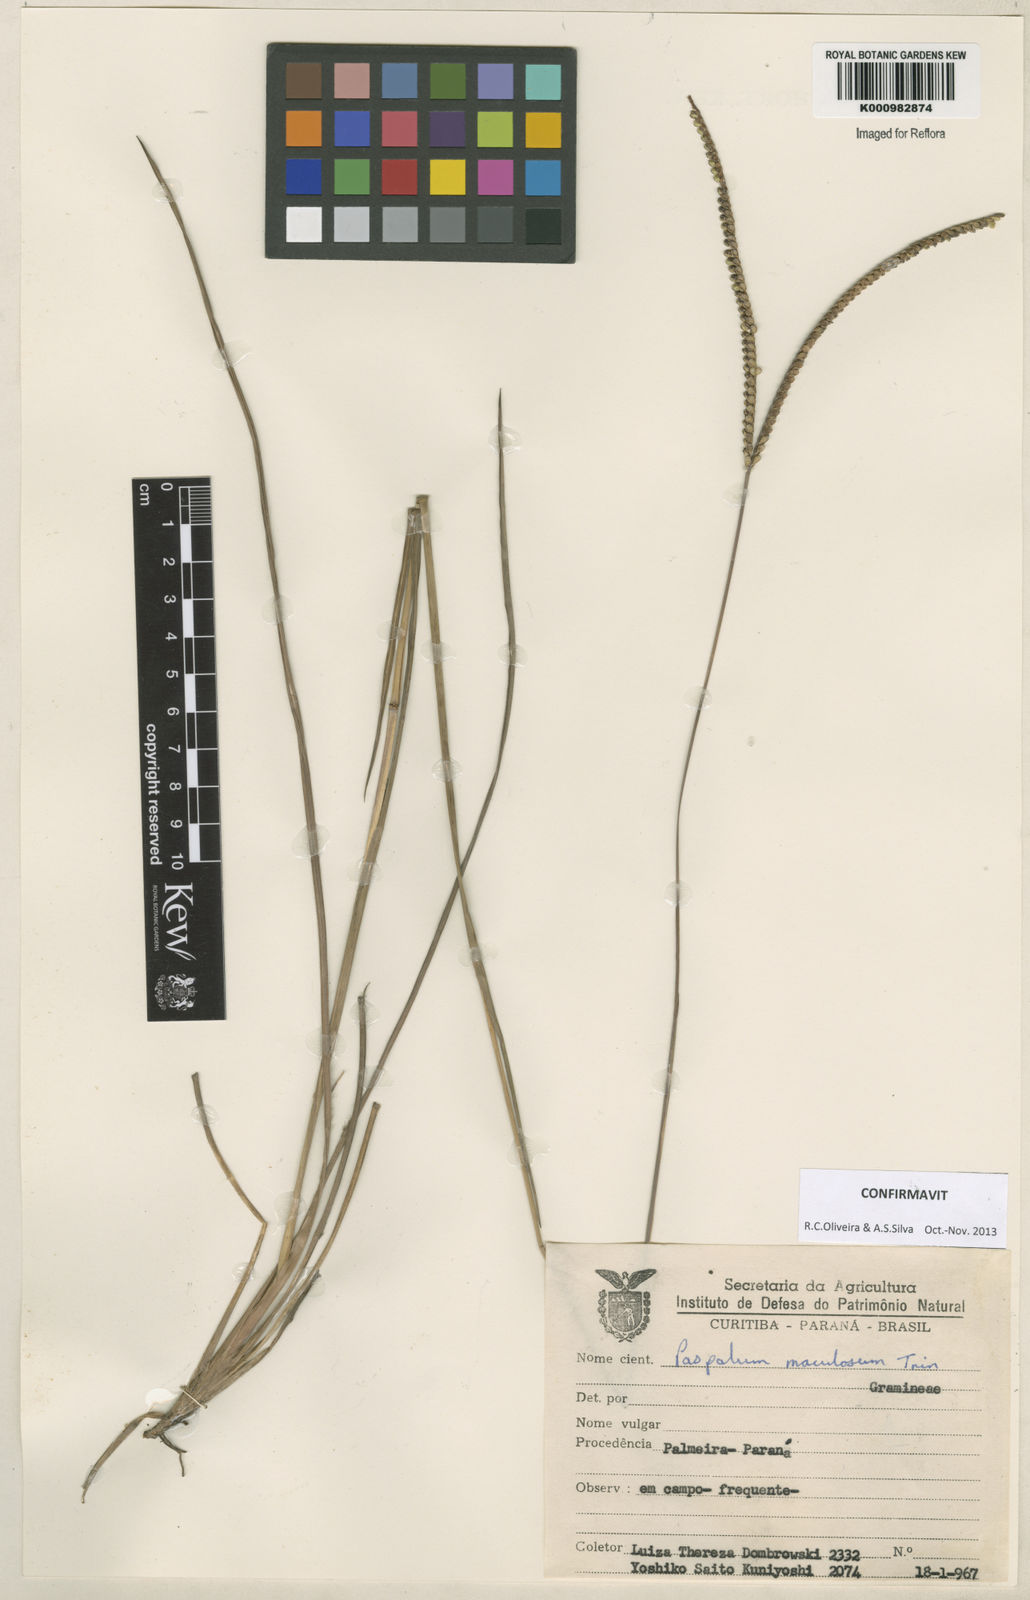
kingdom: Plantae
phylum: Tracheophyta
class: Liliopsida
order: Poales
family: Poaceae
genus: Paspalum
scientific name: Paspalum maculosum
